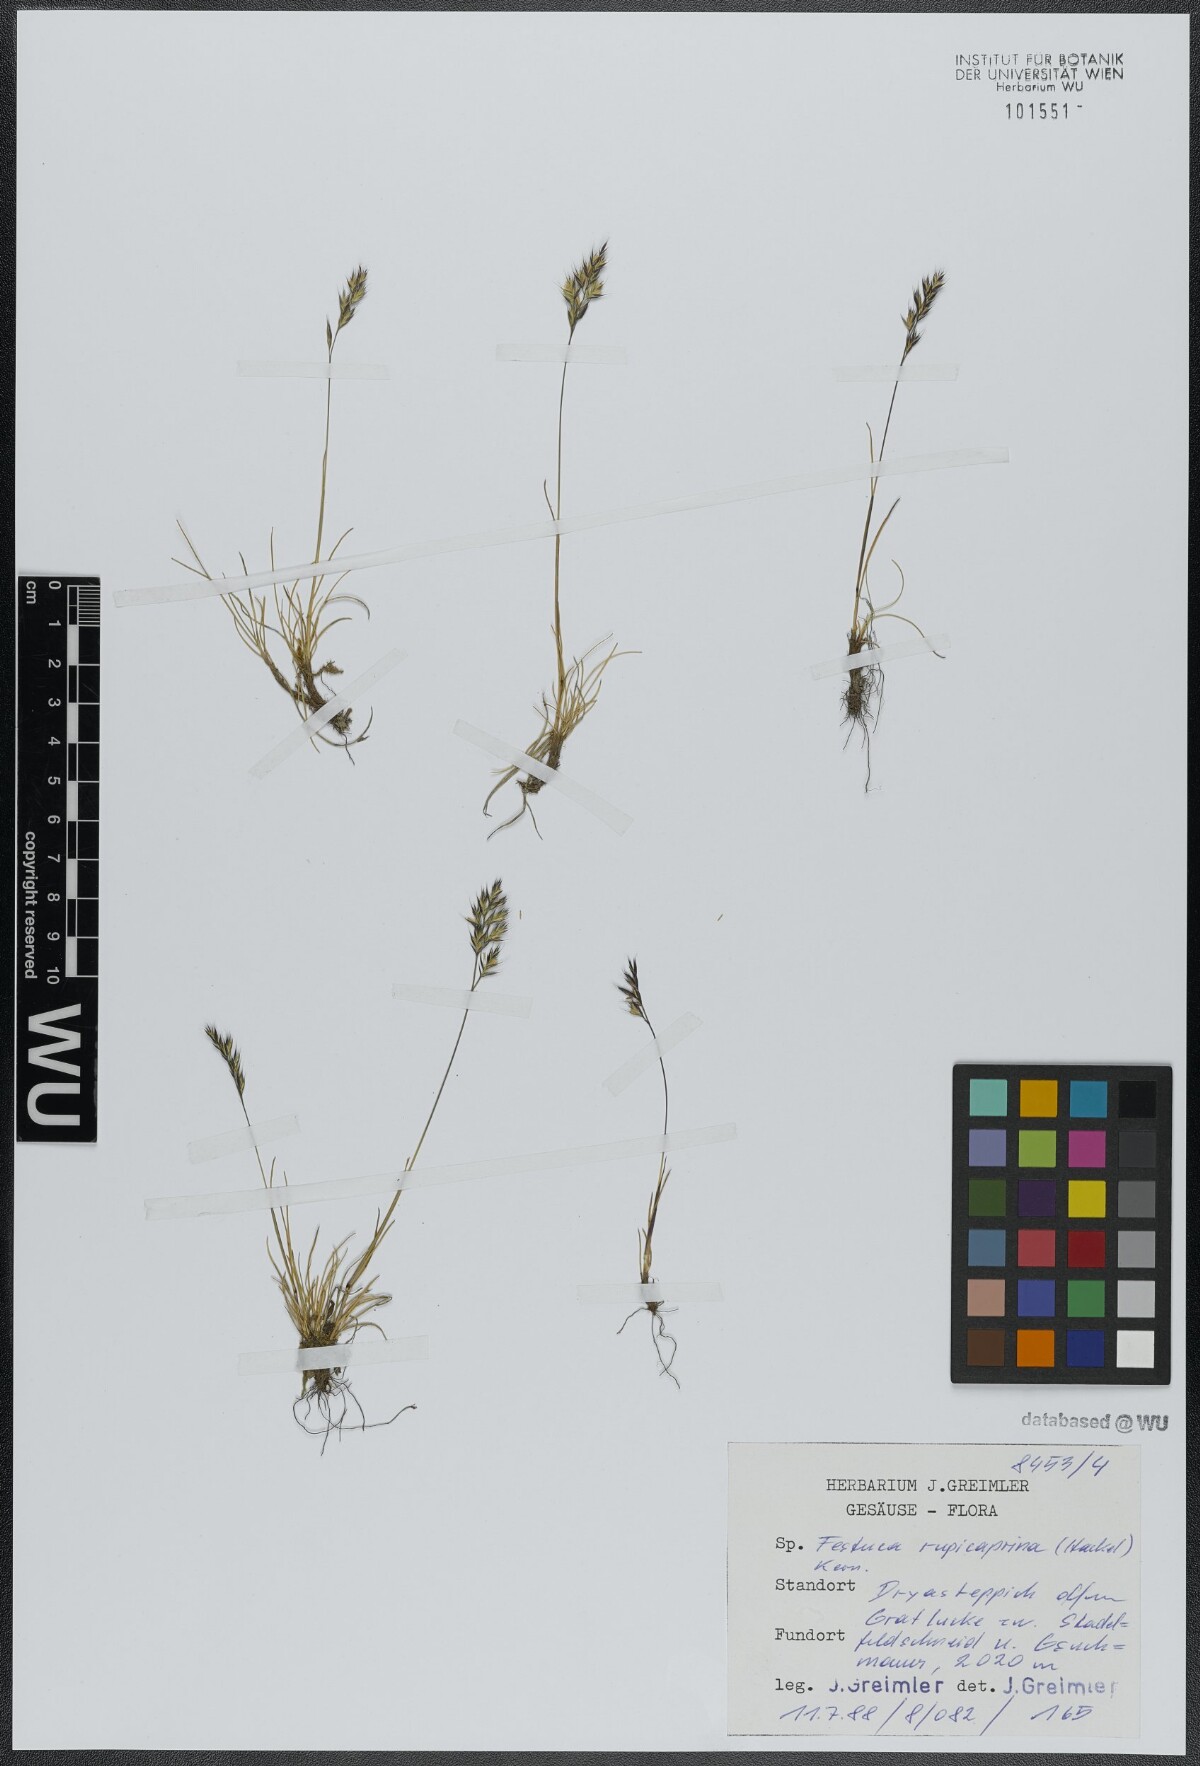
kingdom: Plantae
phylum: Tracheophyta
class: Liliopsida
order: Poales
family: Poaceae
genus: Festuca
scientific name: Festuca rupicaprina
